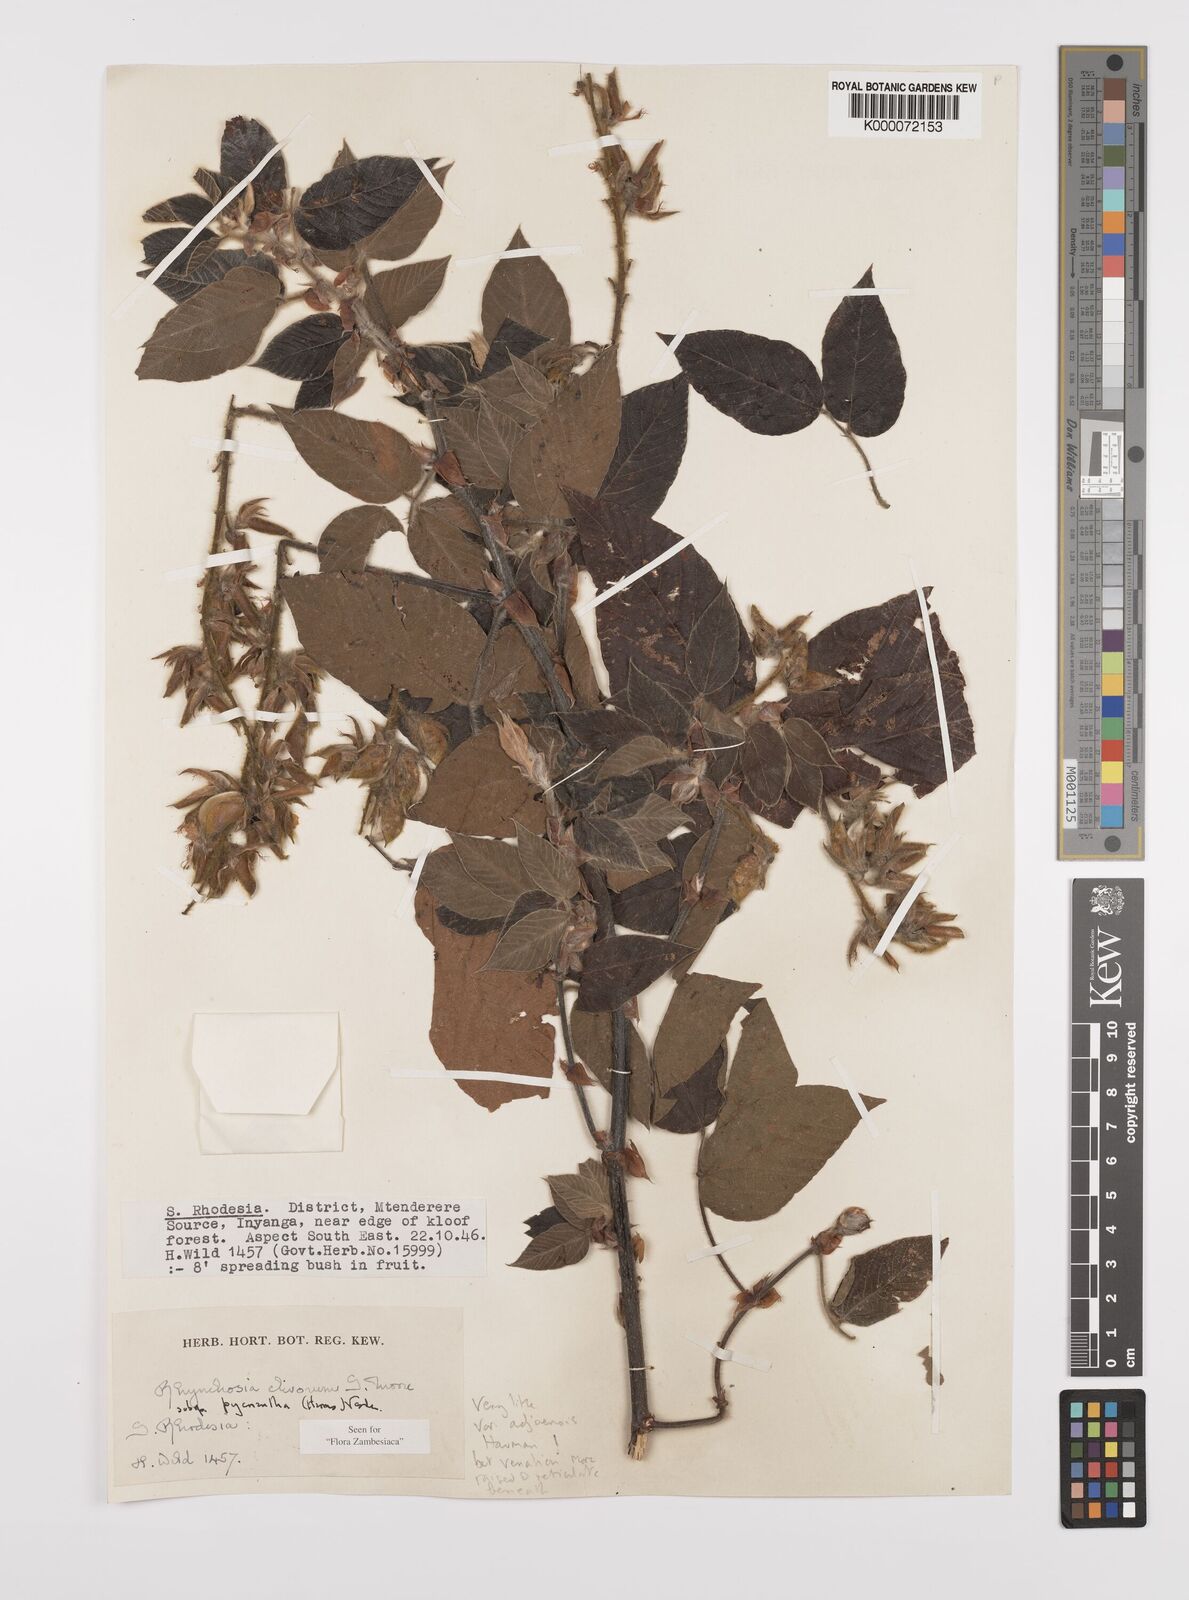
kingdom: Plantae
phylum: Tracheophyta
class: Magnoliopsida
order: Fabales
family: Fabaceae
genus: Rhynchosia
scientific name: Rhynchosia clivorum
